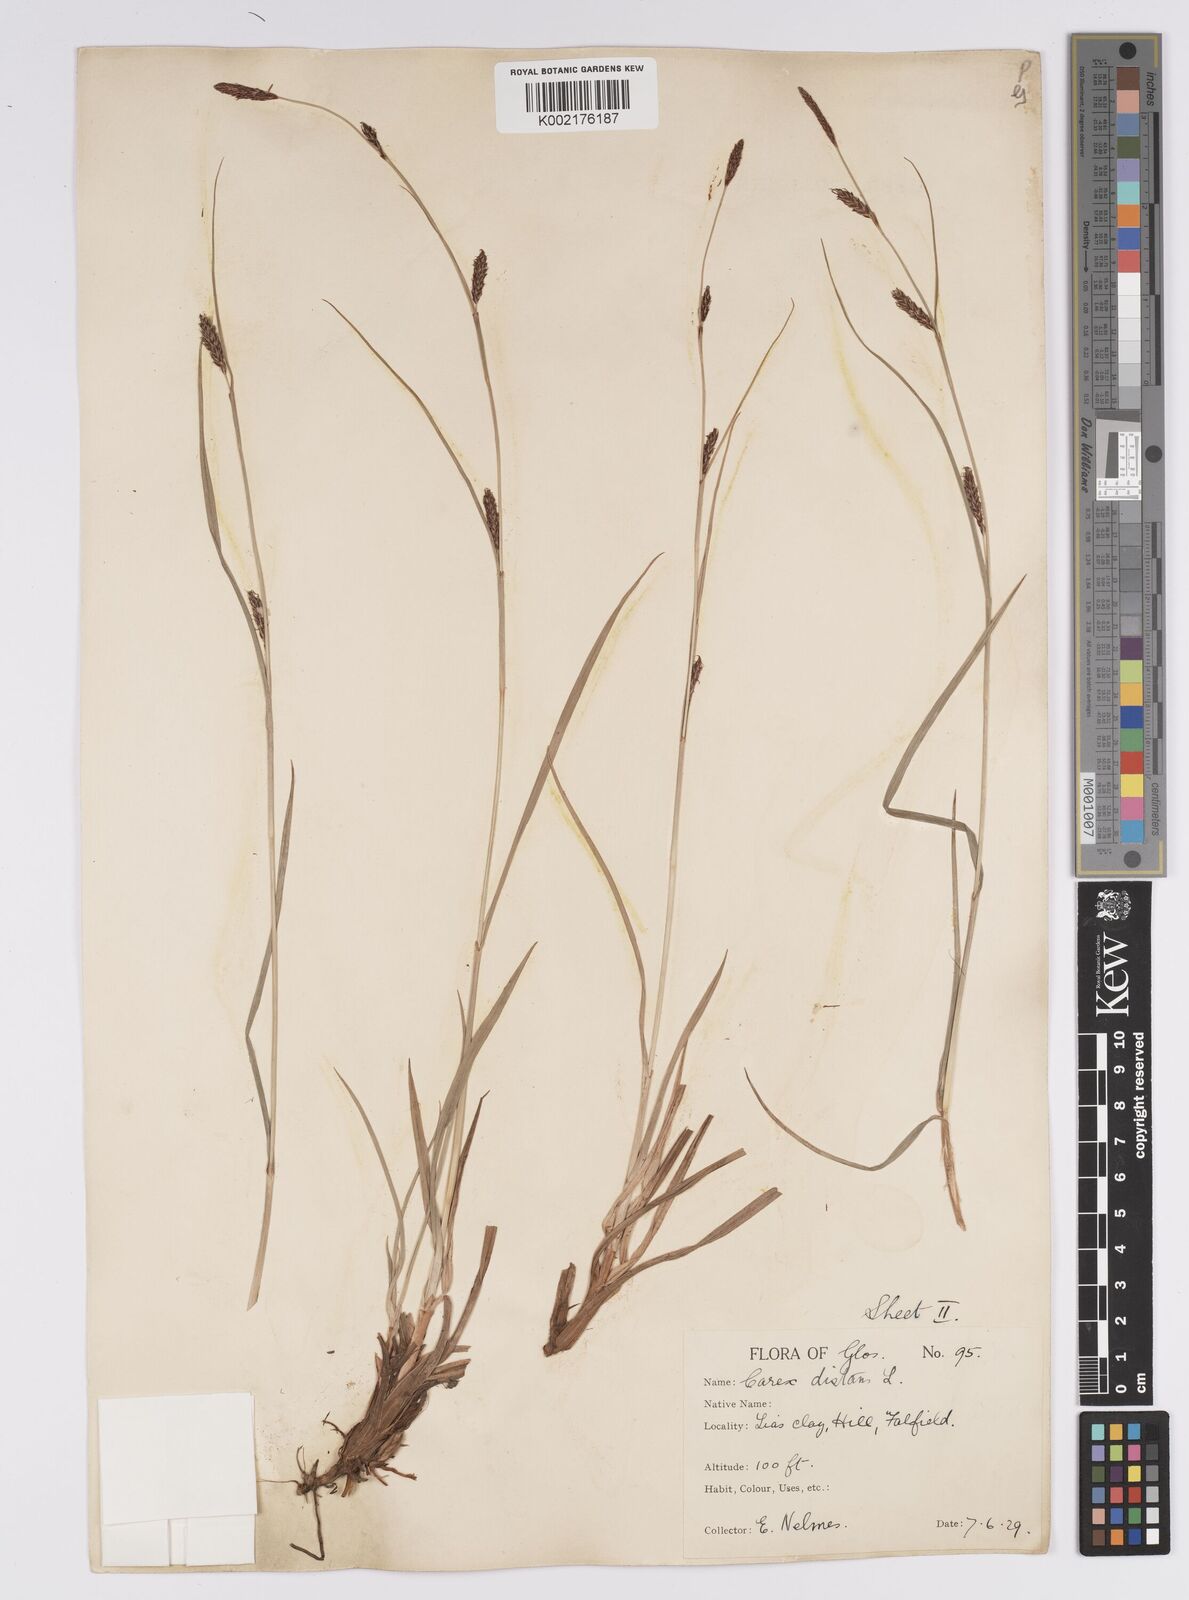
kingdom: Plantae
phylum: Tracheophyta
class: Liliopsida
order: Poales
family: Cyperaceae
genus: Carex
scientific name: Carex distans
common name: Distant sedge
